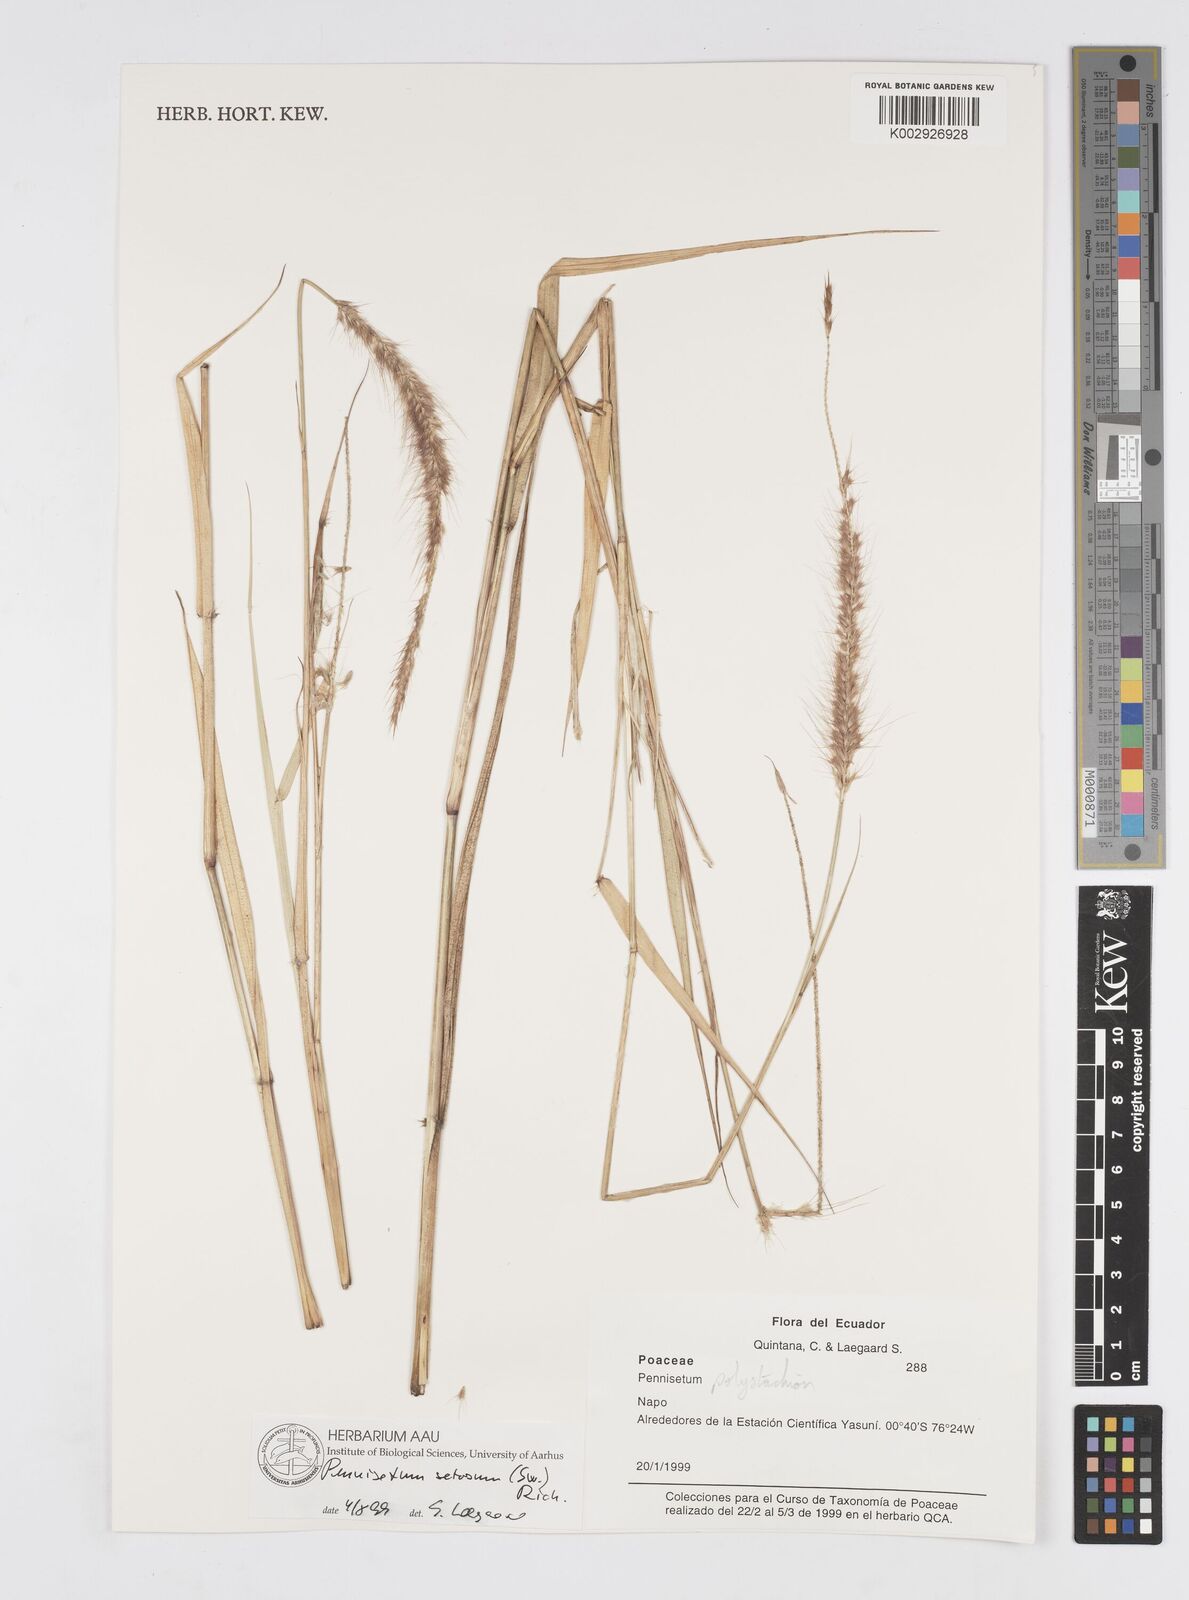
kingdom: Plantae
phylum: Tracheophyta
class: Liliopsida
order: Poales
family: Poaceae
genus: Setaria
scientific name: Setaria parviflora
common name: Knotroot bristle-grass
